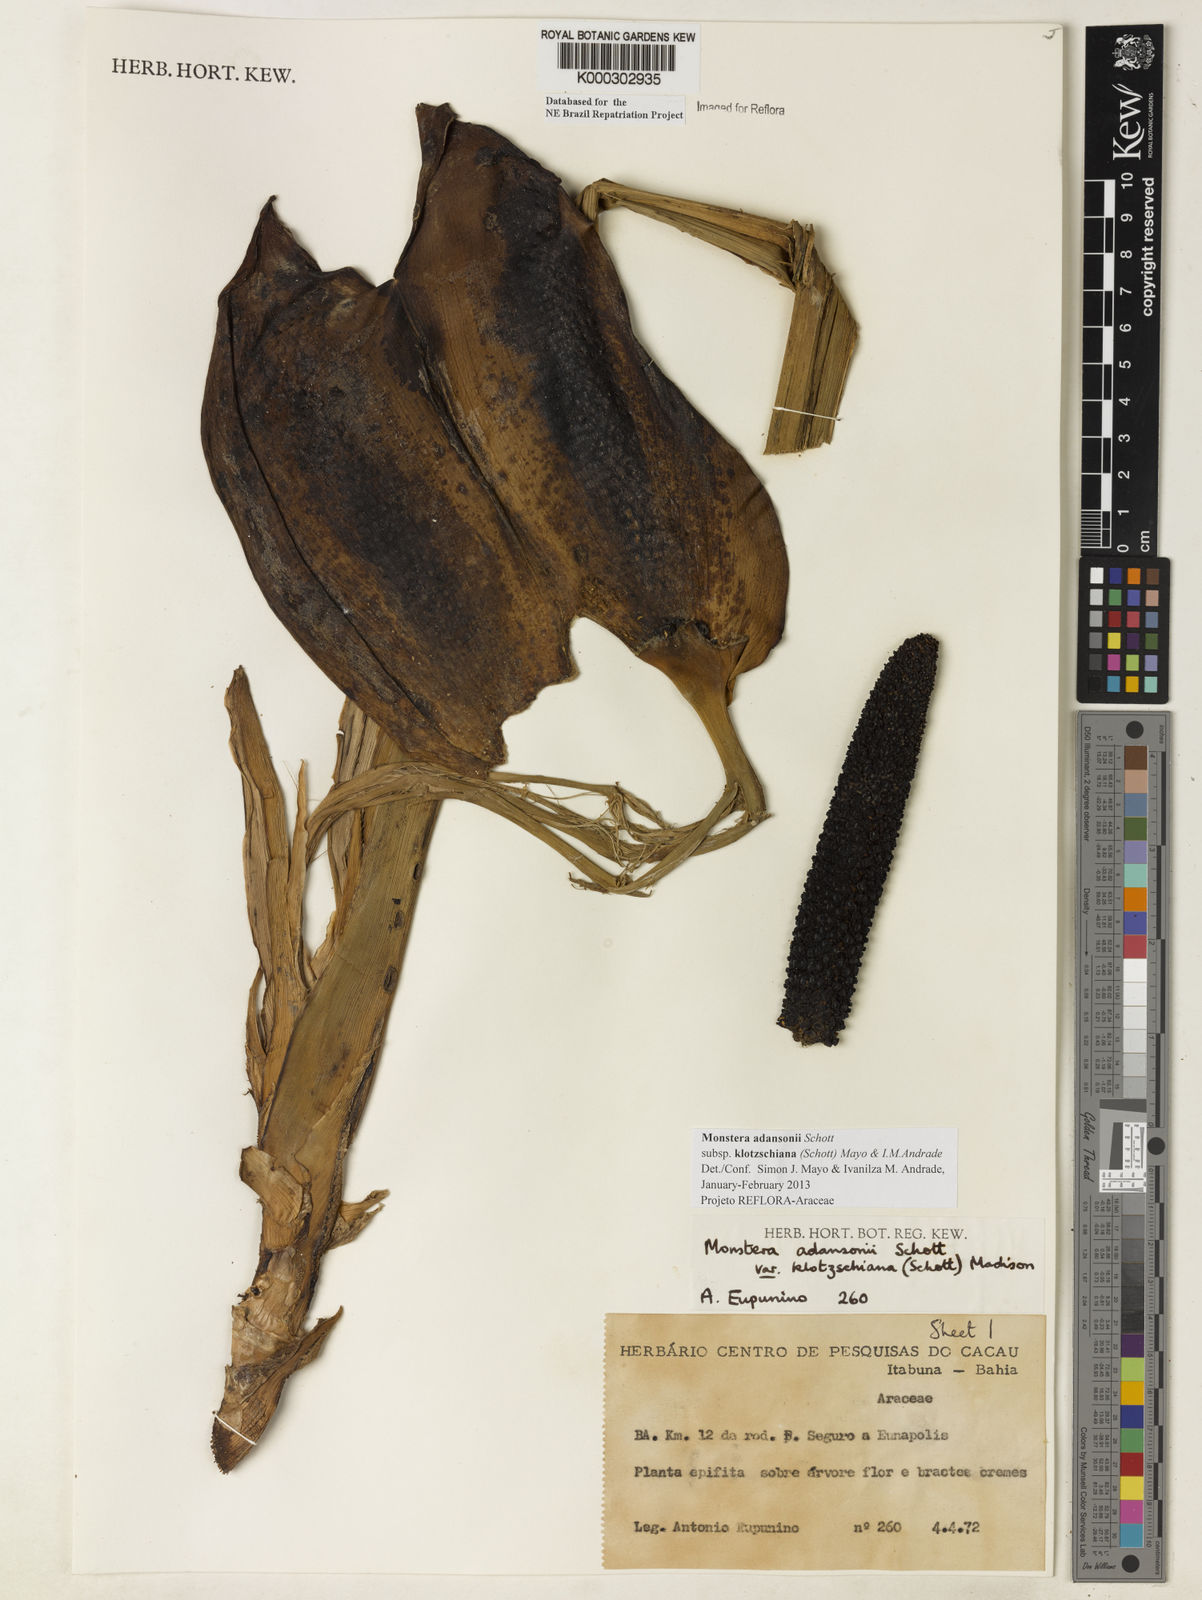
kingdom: Plantae
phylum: Tracheophyta
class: Liliopsida
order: Alismatales
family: Araceae
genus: Monstera
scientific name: Monstera adansonii
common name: Tarovine
